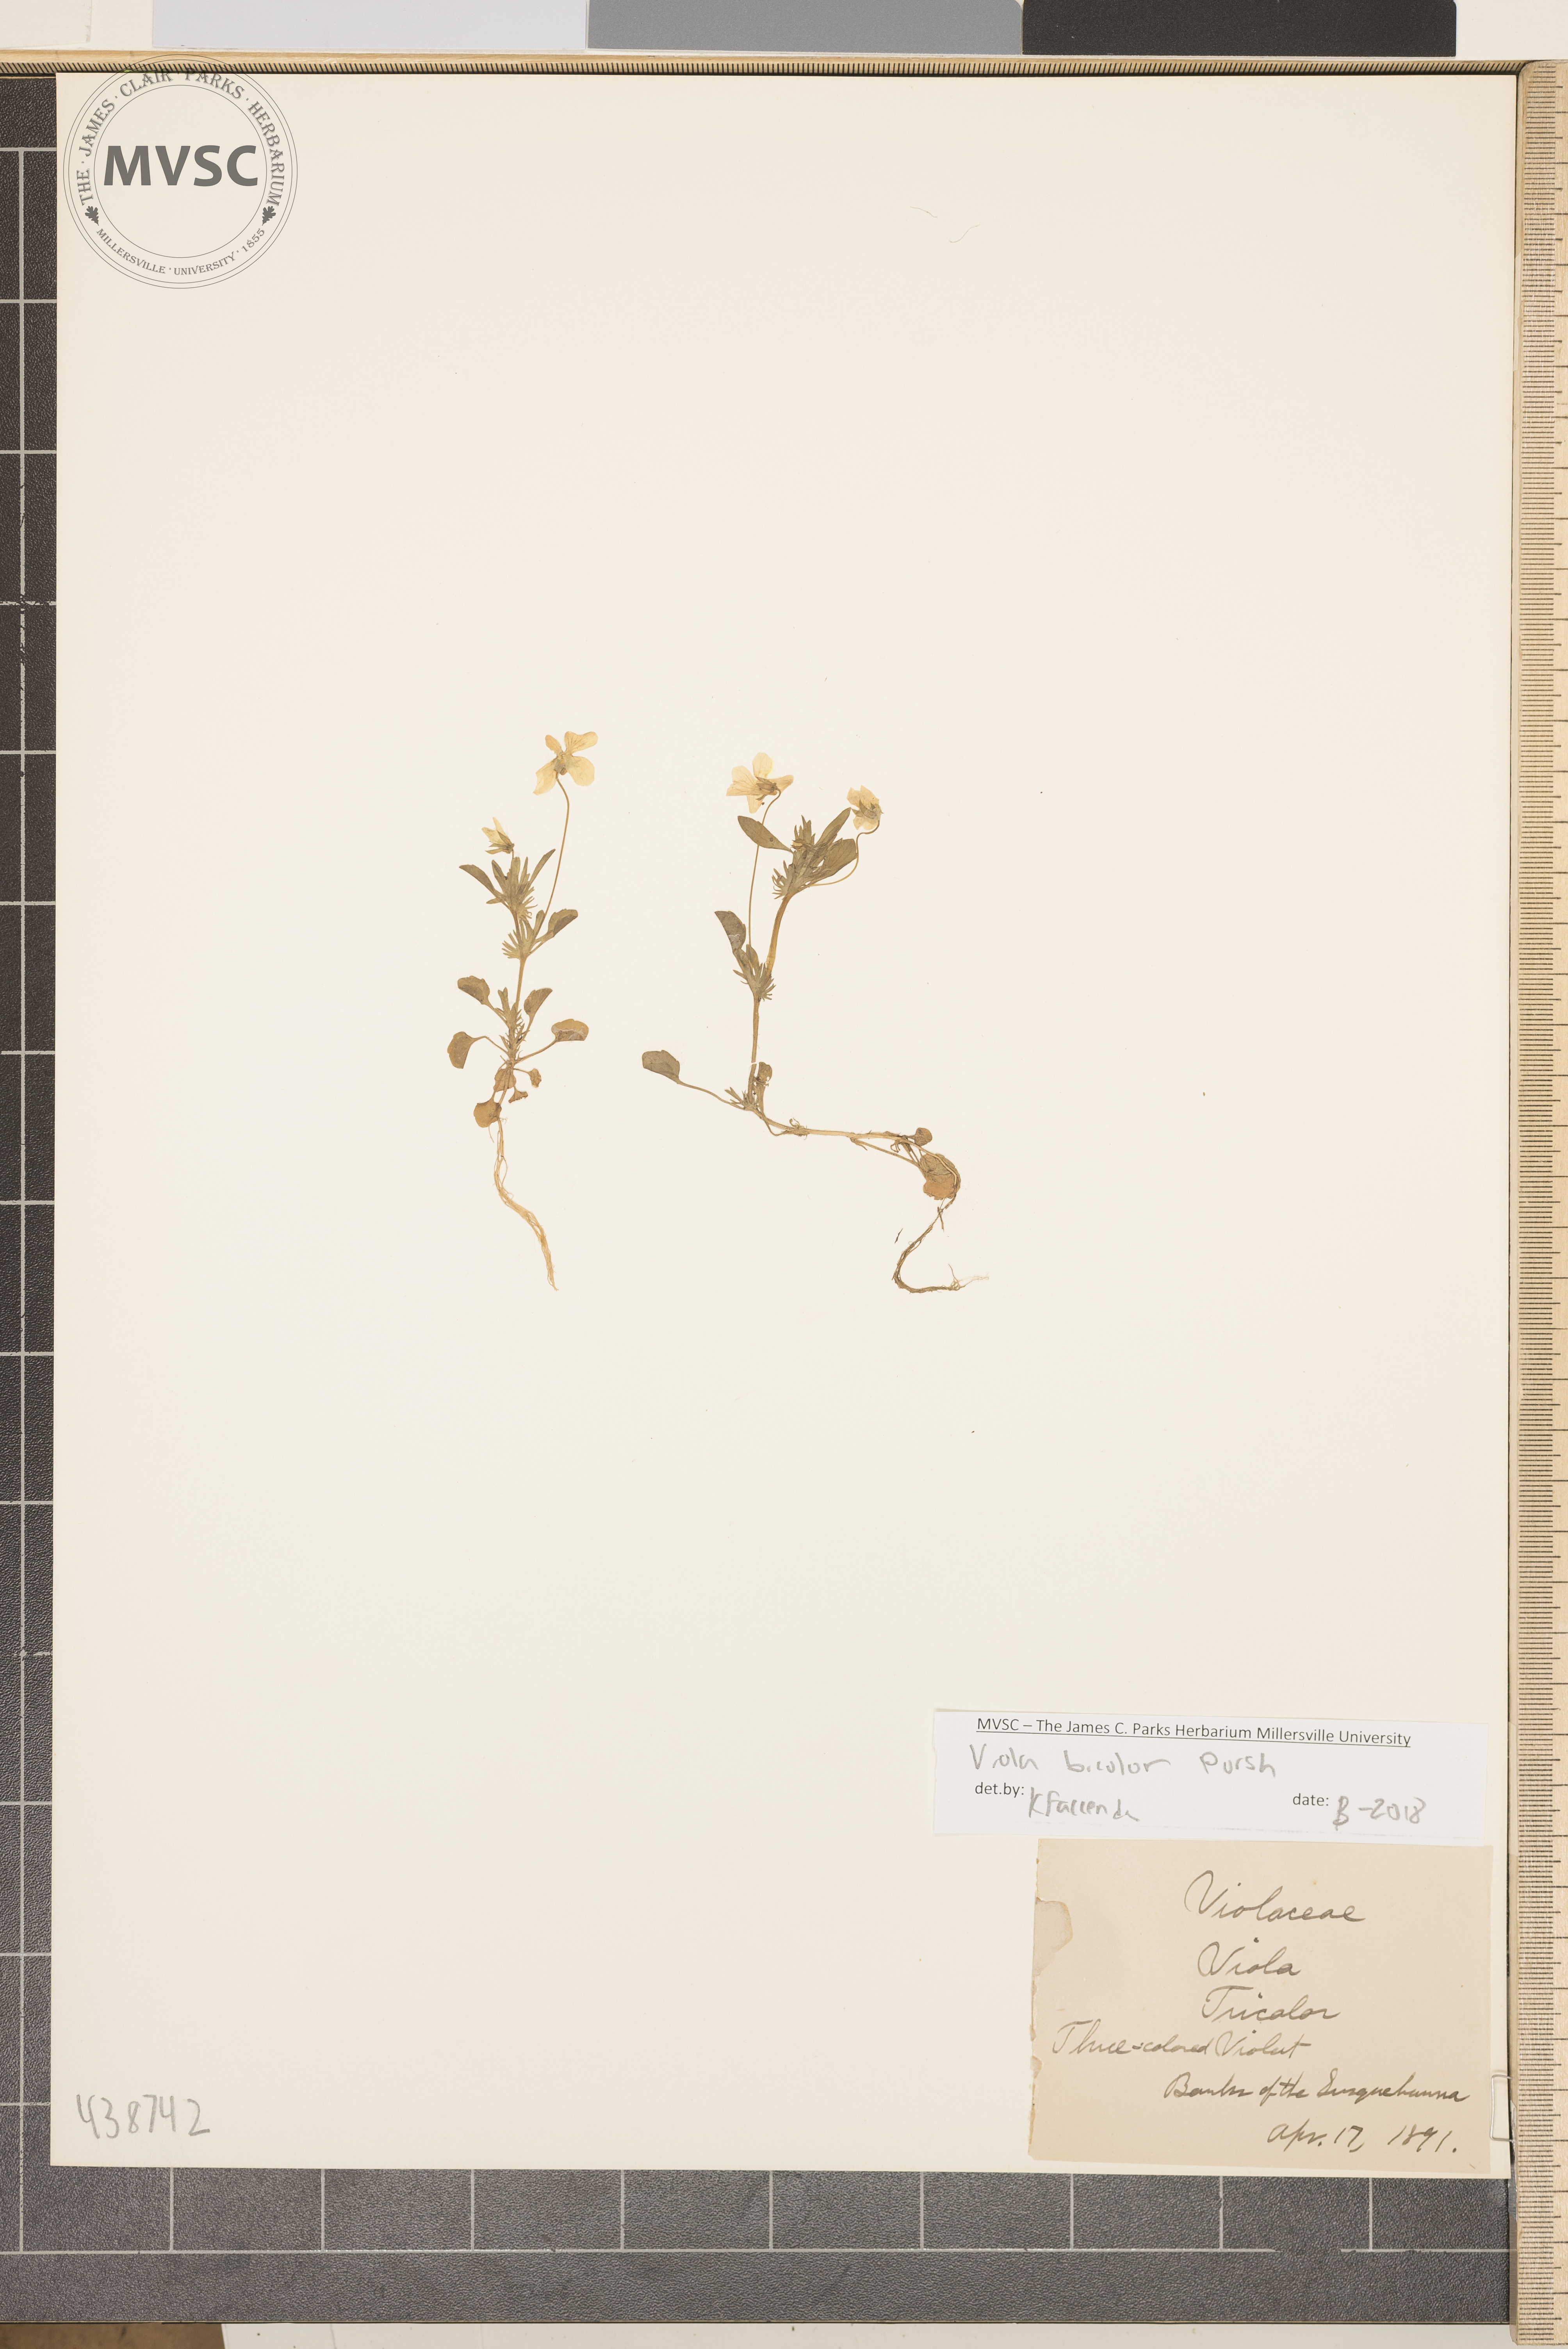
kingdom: Plantae
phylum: Tracheophyta
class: Magnoliopsida
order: Malpighiales
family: Violaceae
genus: Viola
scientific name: Viola rafinesquei
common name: American field pansy
